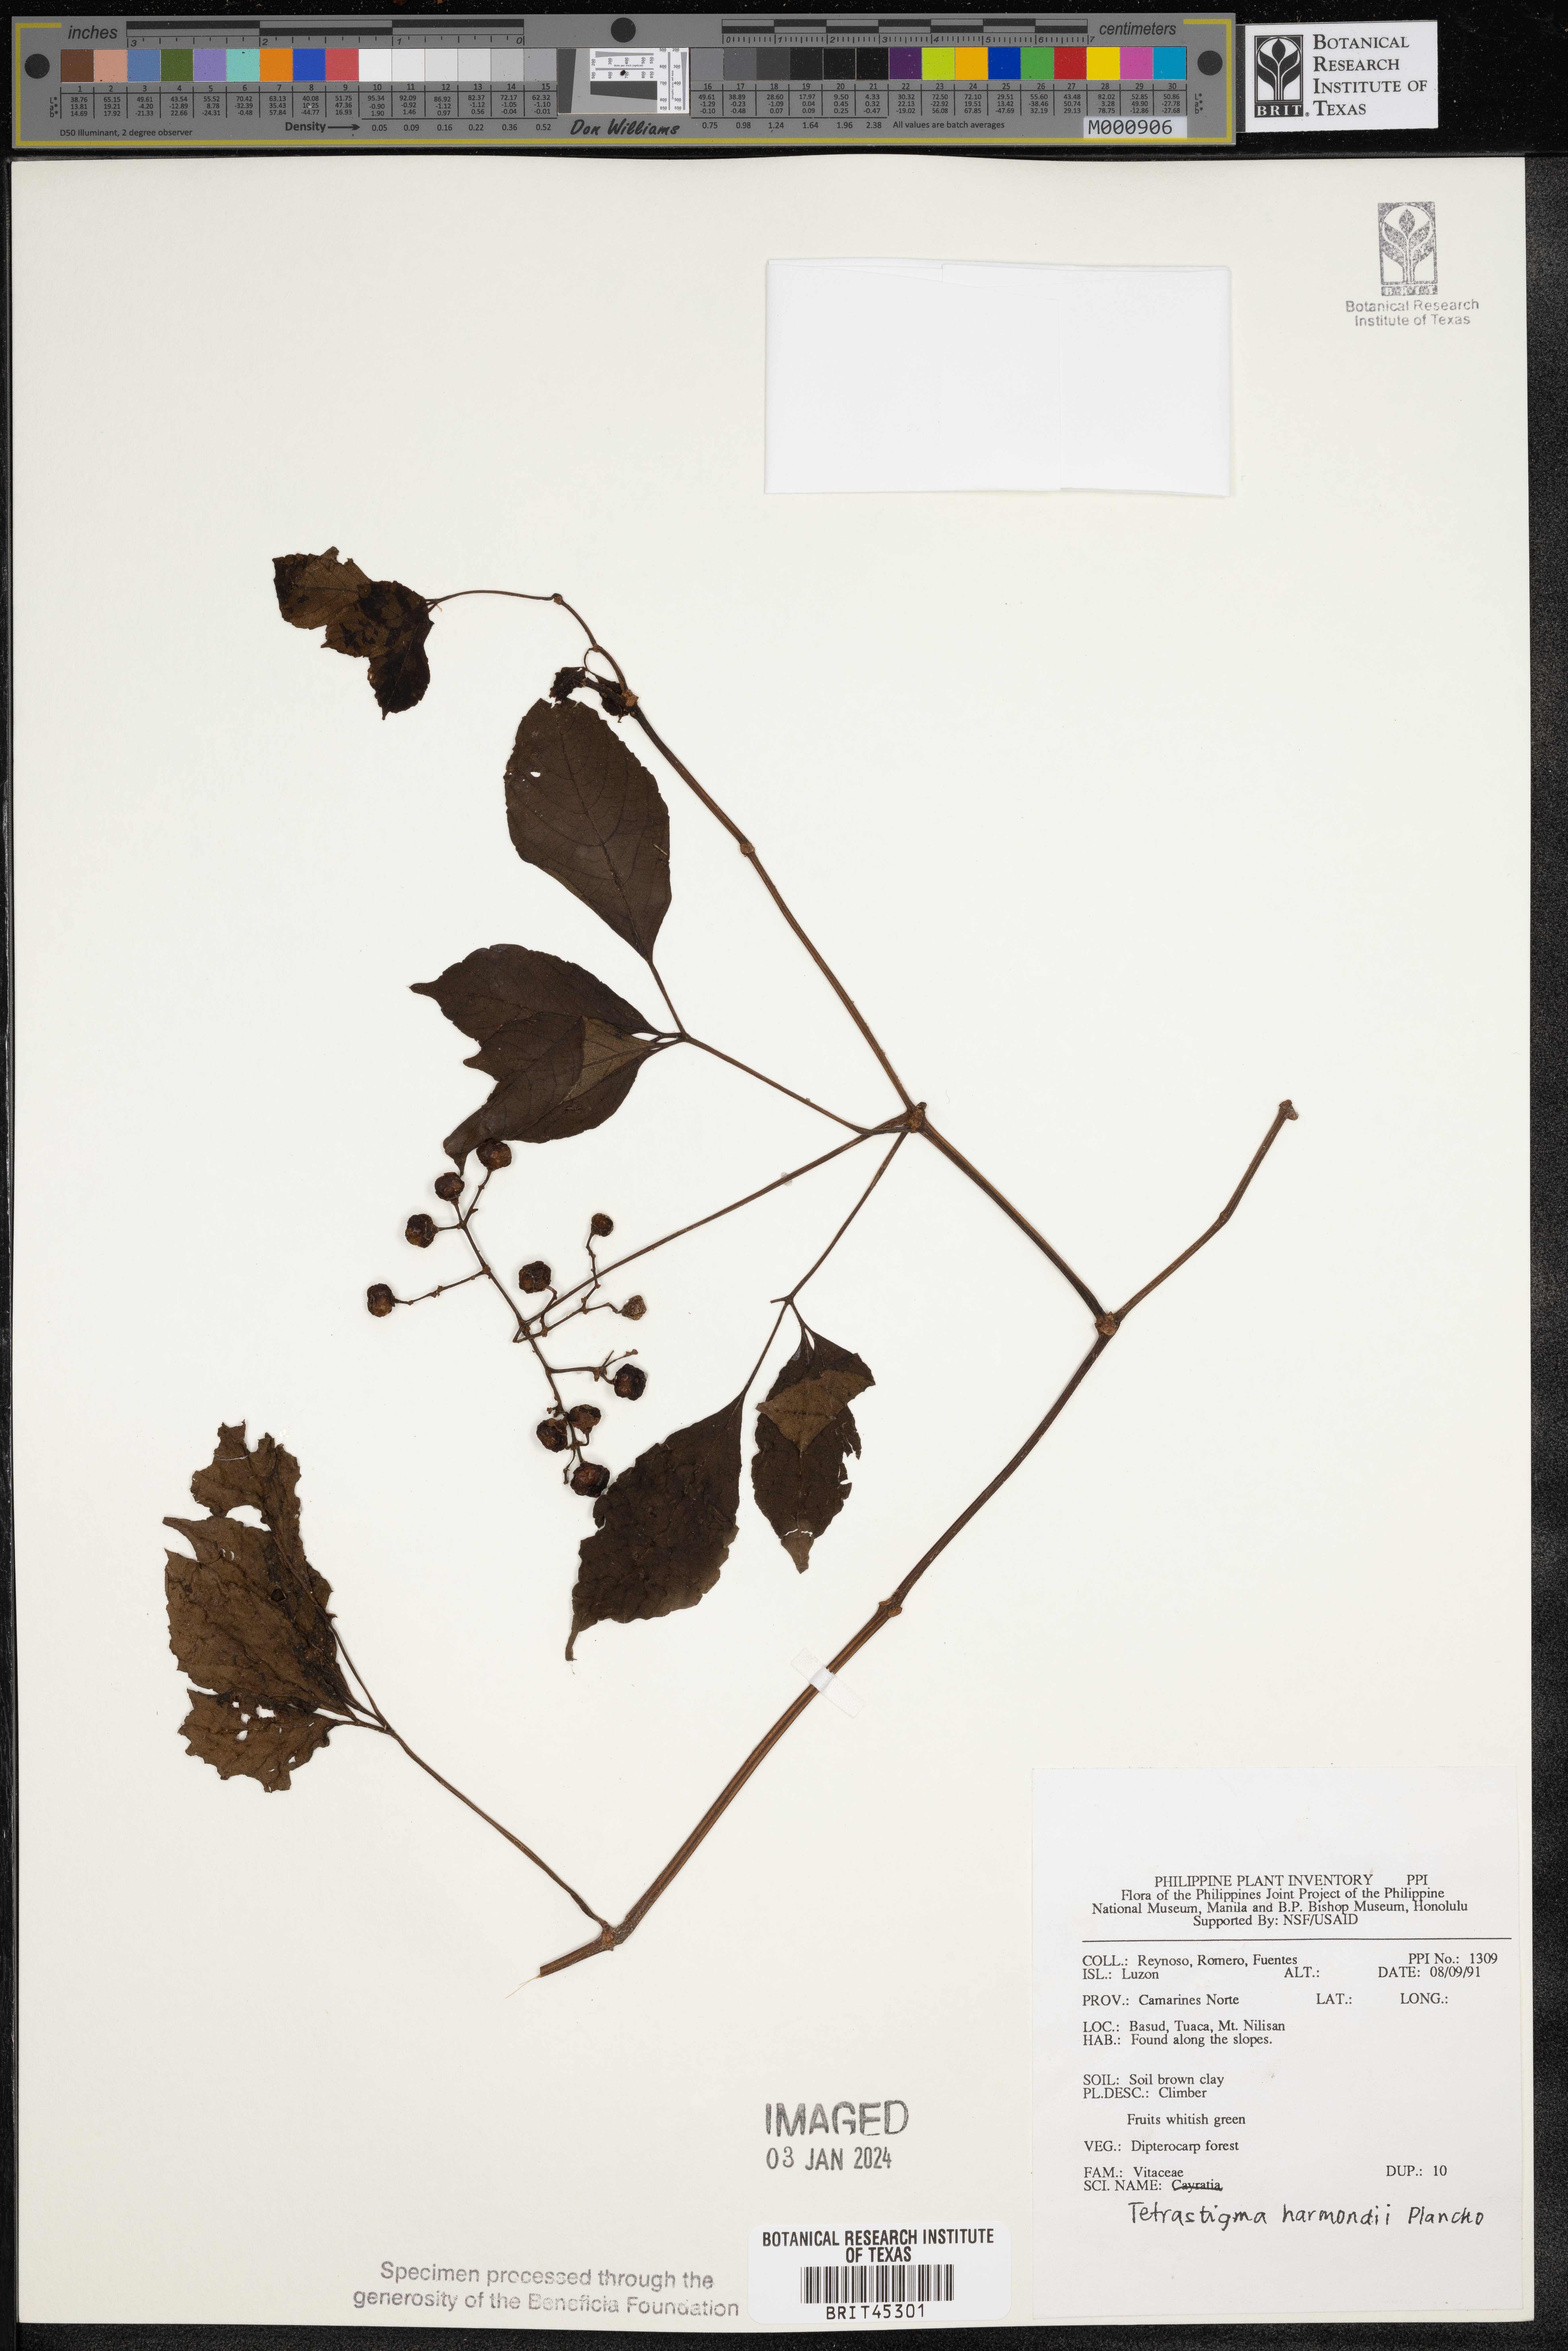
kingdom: Plantae
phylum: Tracheophyta
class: Magnoliopsida
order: Vitales
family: Vitaceae
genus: Tetrastigma
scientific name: Tetrastigma harmandii
